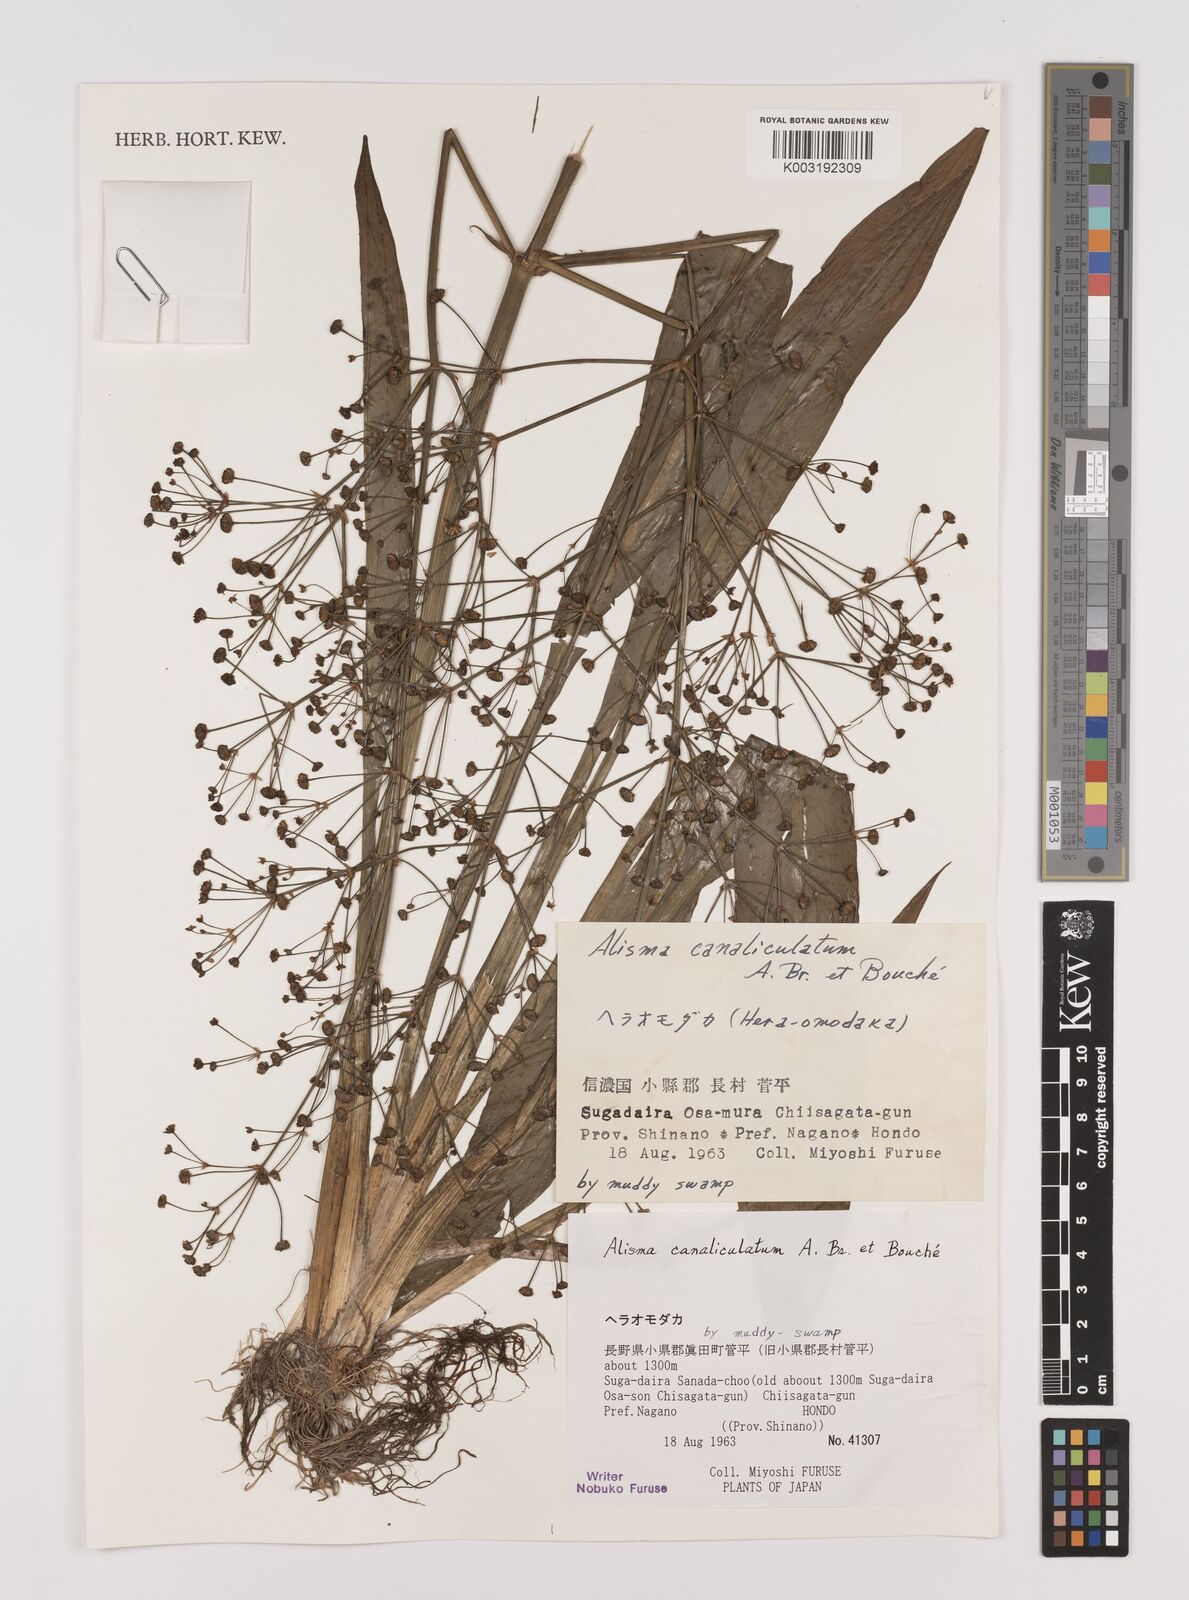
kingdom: Plantae
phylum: Tracheophyta
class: Liliopsida
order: Alismatales
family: Alismataceae
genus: Alisma
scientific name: Alisma canaliculatum
